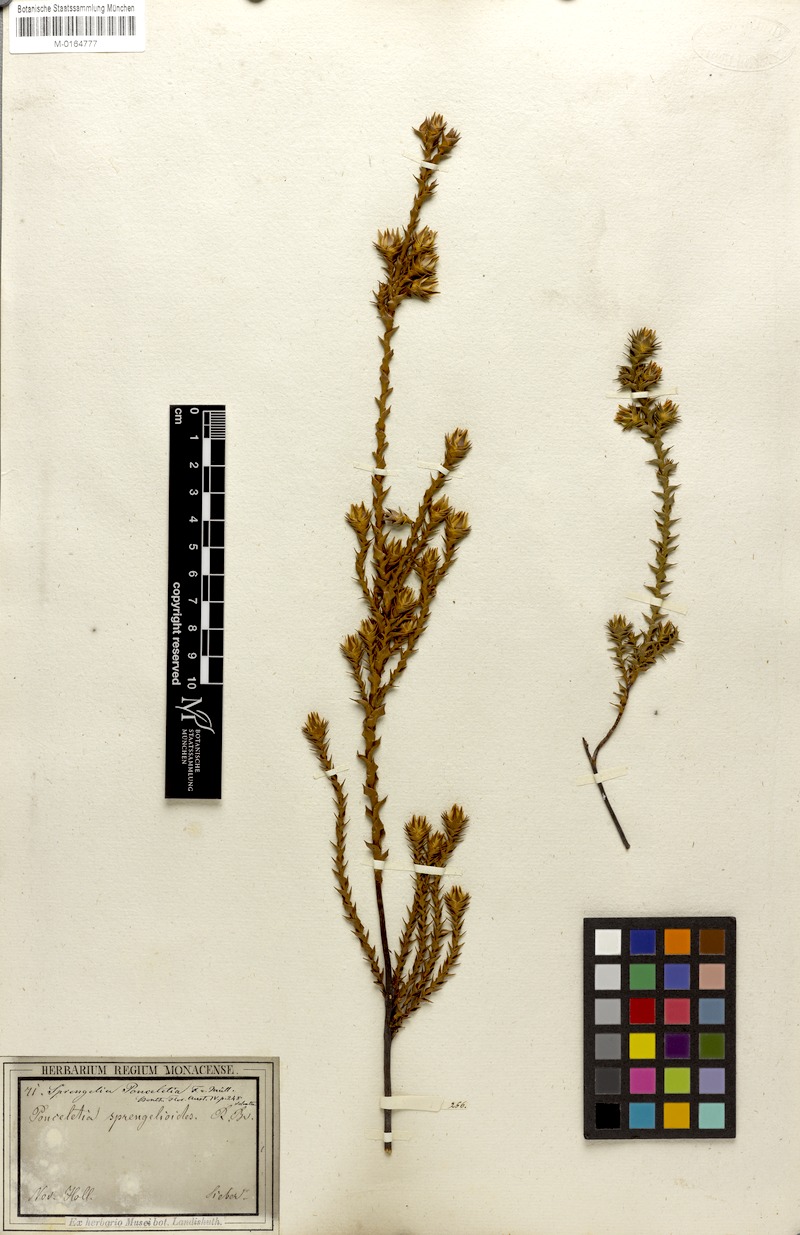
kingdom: Plantae
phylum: Tracheophyta
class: Magnoliopsida
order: Ericales
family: Ericaceae
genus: Sprengelia
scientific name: Sprengelia sprengelioides
